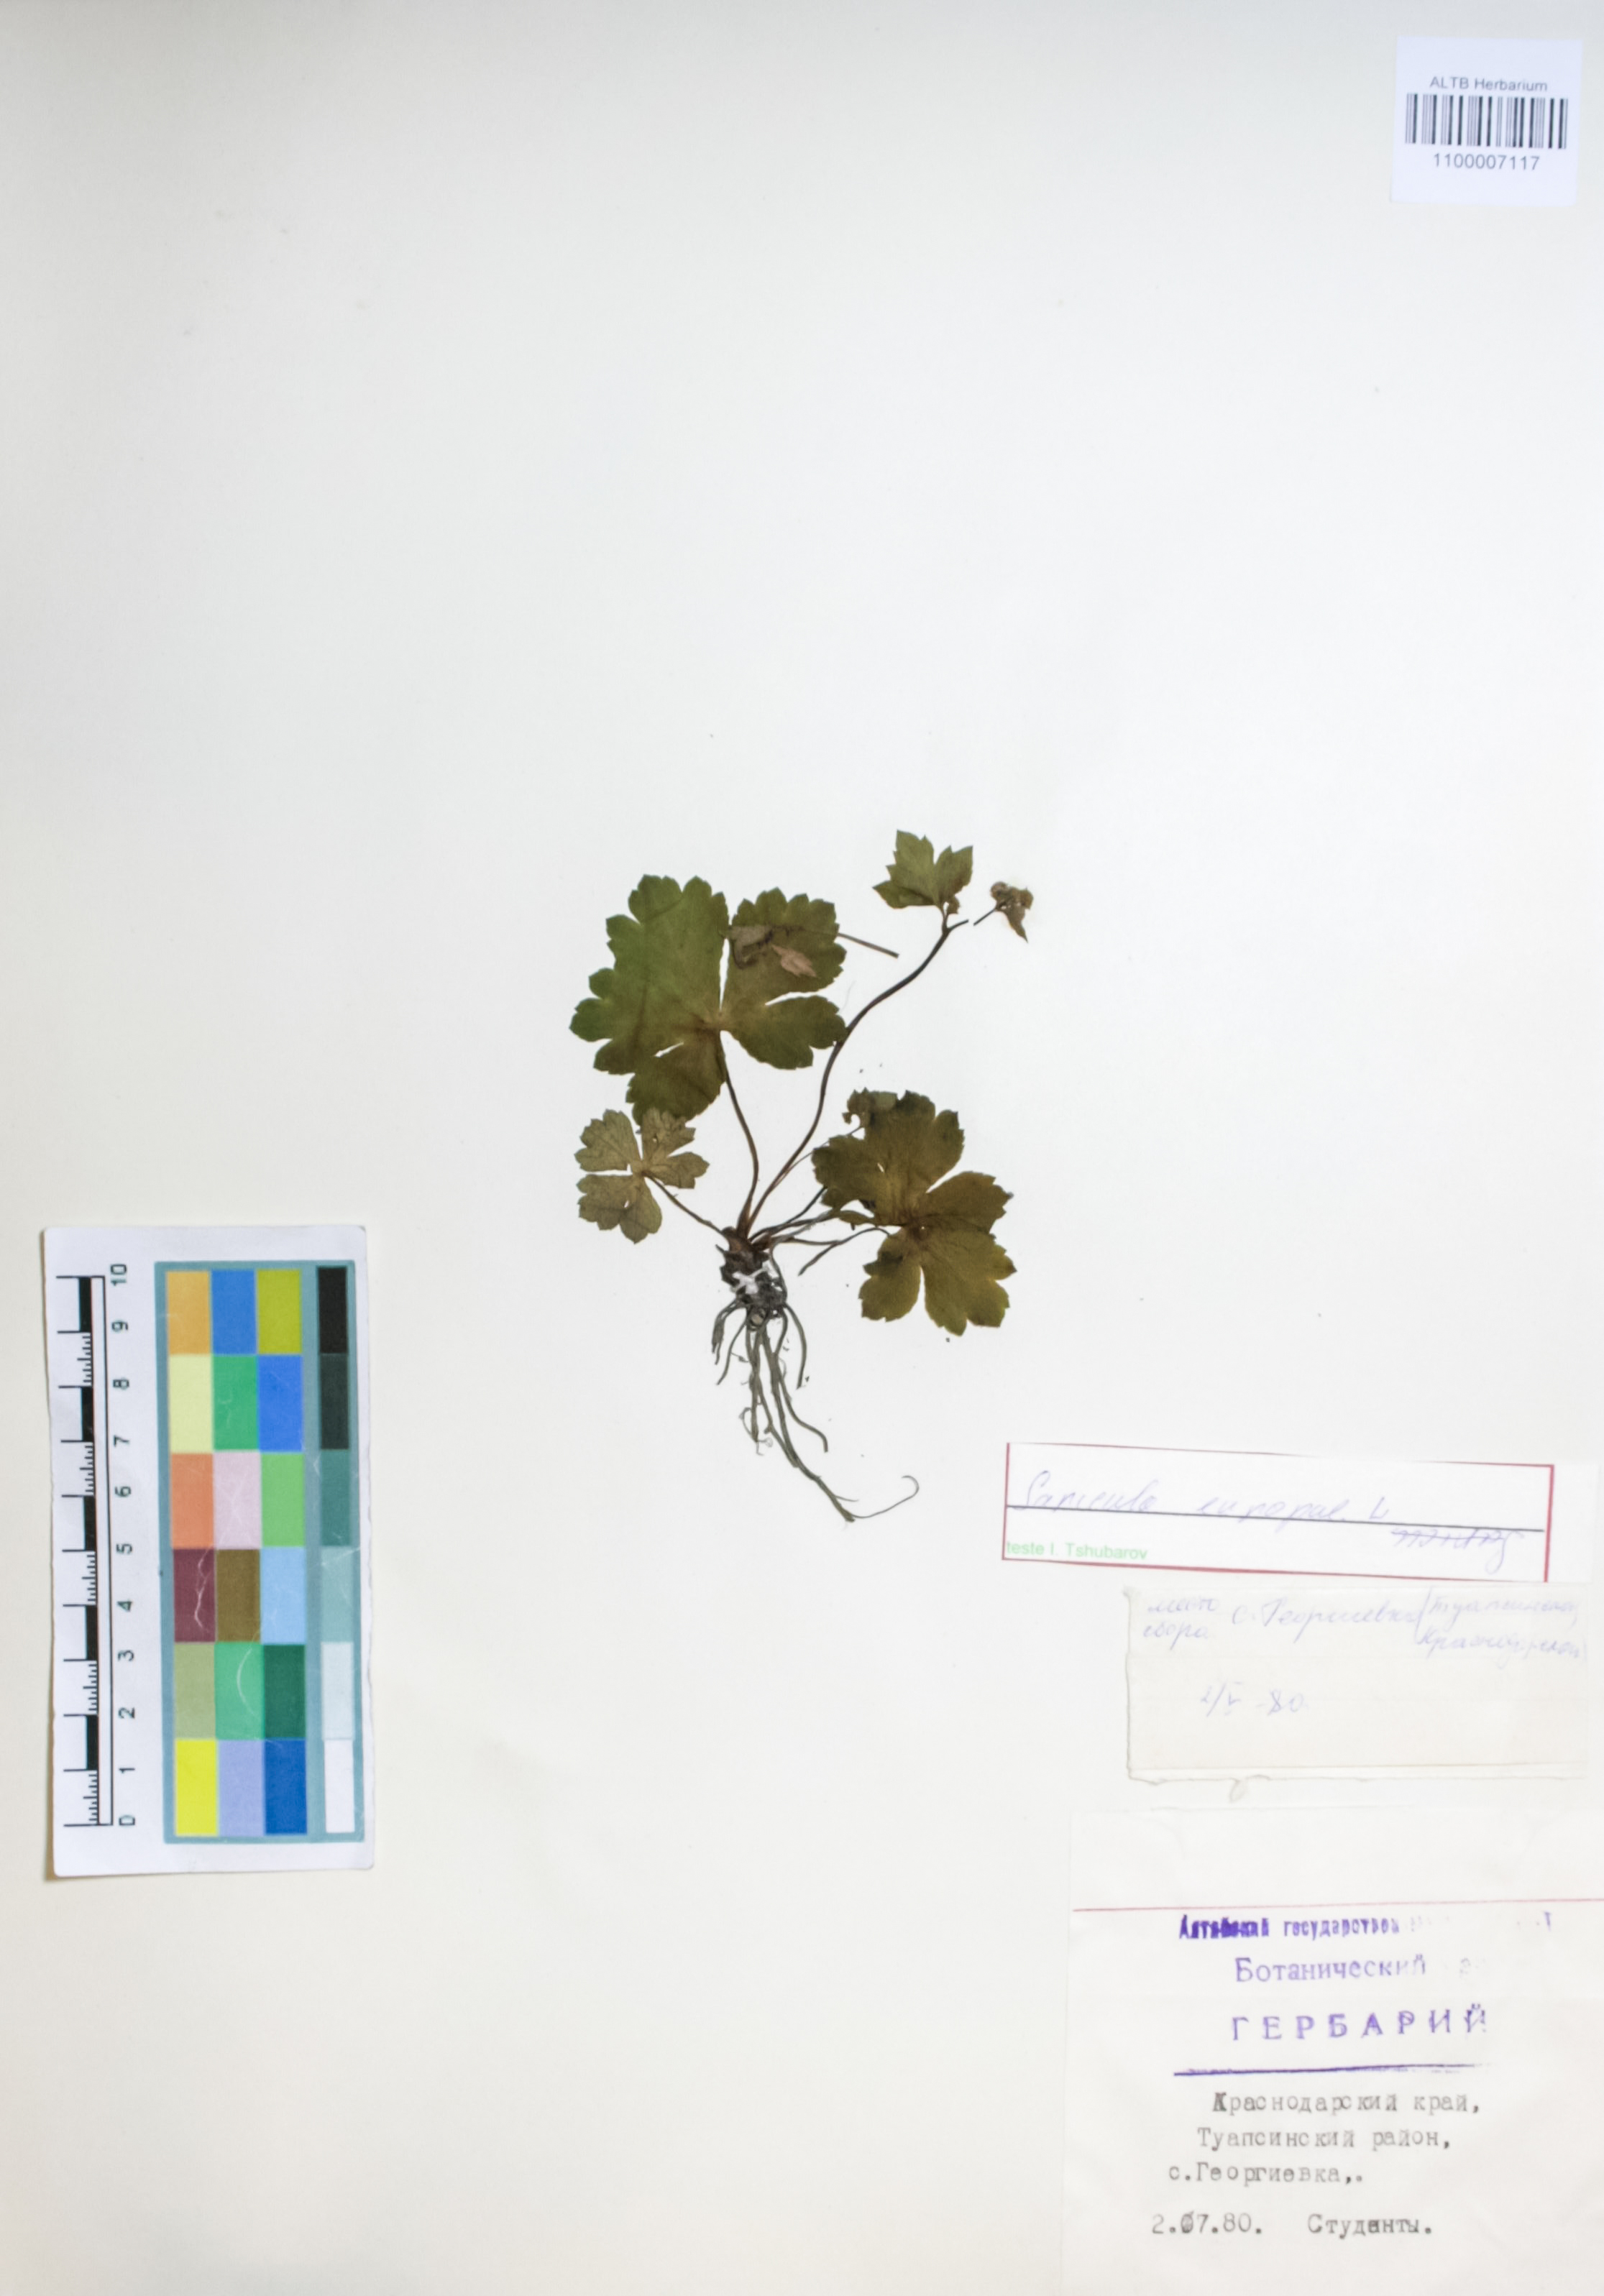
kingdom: Plantae
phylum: Tracheophyta
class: Magnoliopsida
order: Apiales
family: Apiaceae
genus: Sanicula
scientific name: Sanicula europaea
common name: Sanicle
